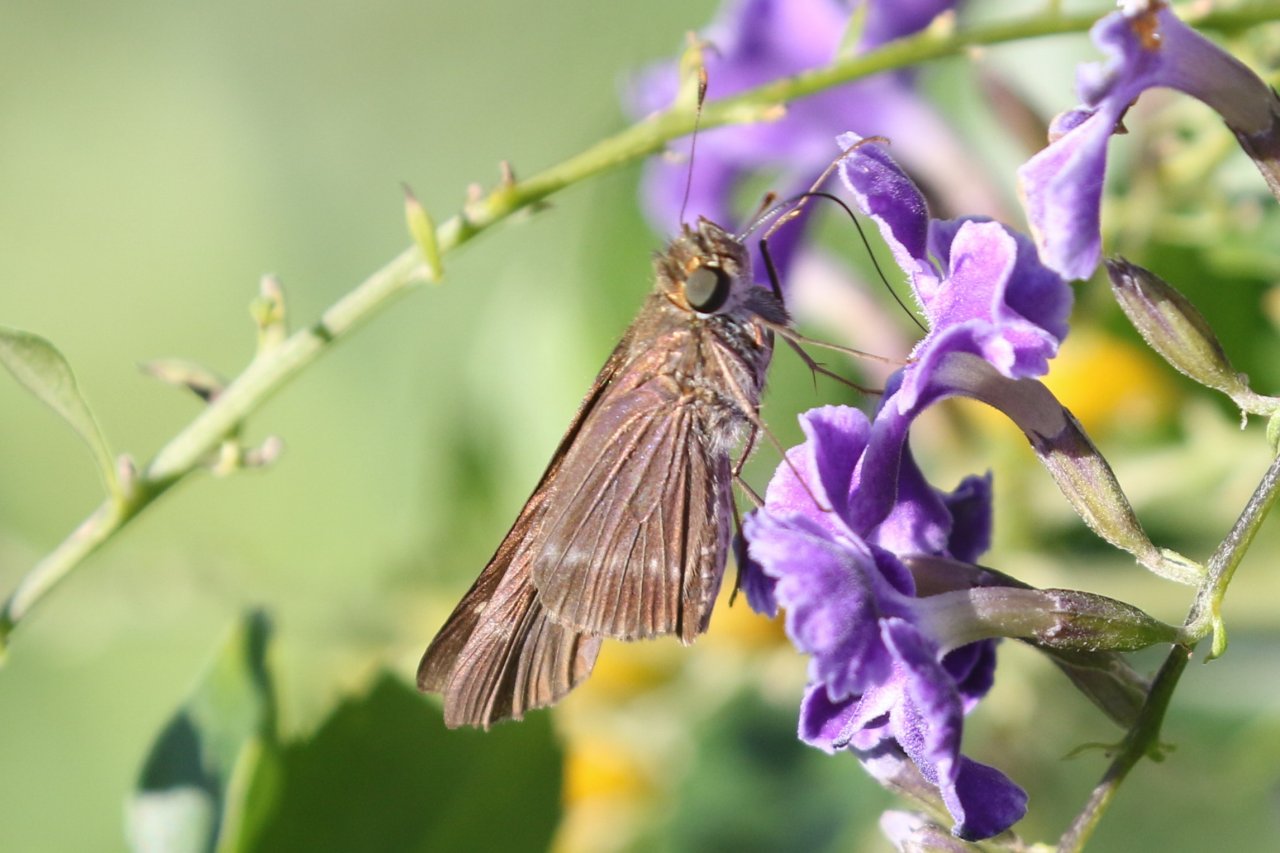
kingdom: Animalia
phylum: Arthropoda
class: Insecta
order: Lepidoptera
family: Hesperiidae
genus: Turesis
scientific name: Turesis lucas
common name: Purple-washed Skipper
